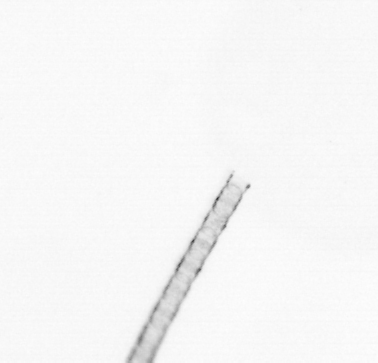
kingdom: Chromista
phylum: Ochrophyta
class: Bacillariophyceae
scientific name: Bacillariophyceae
